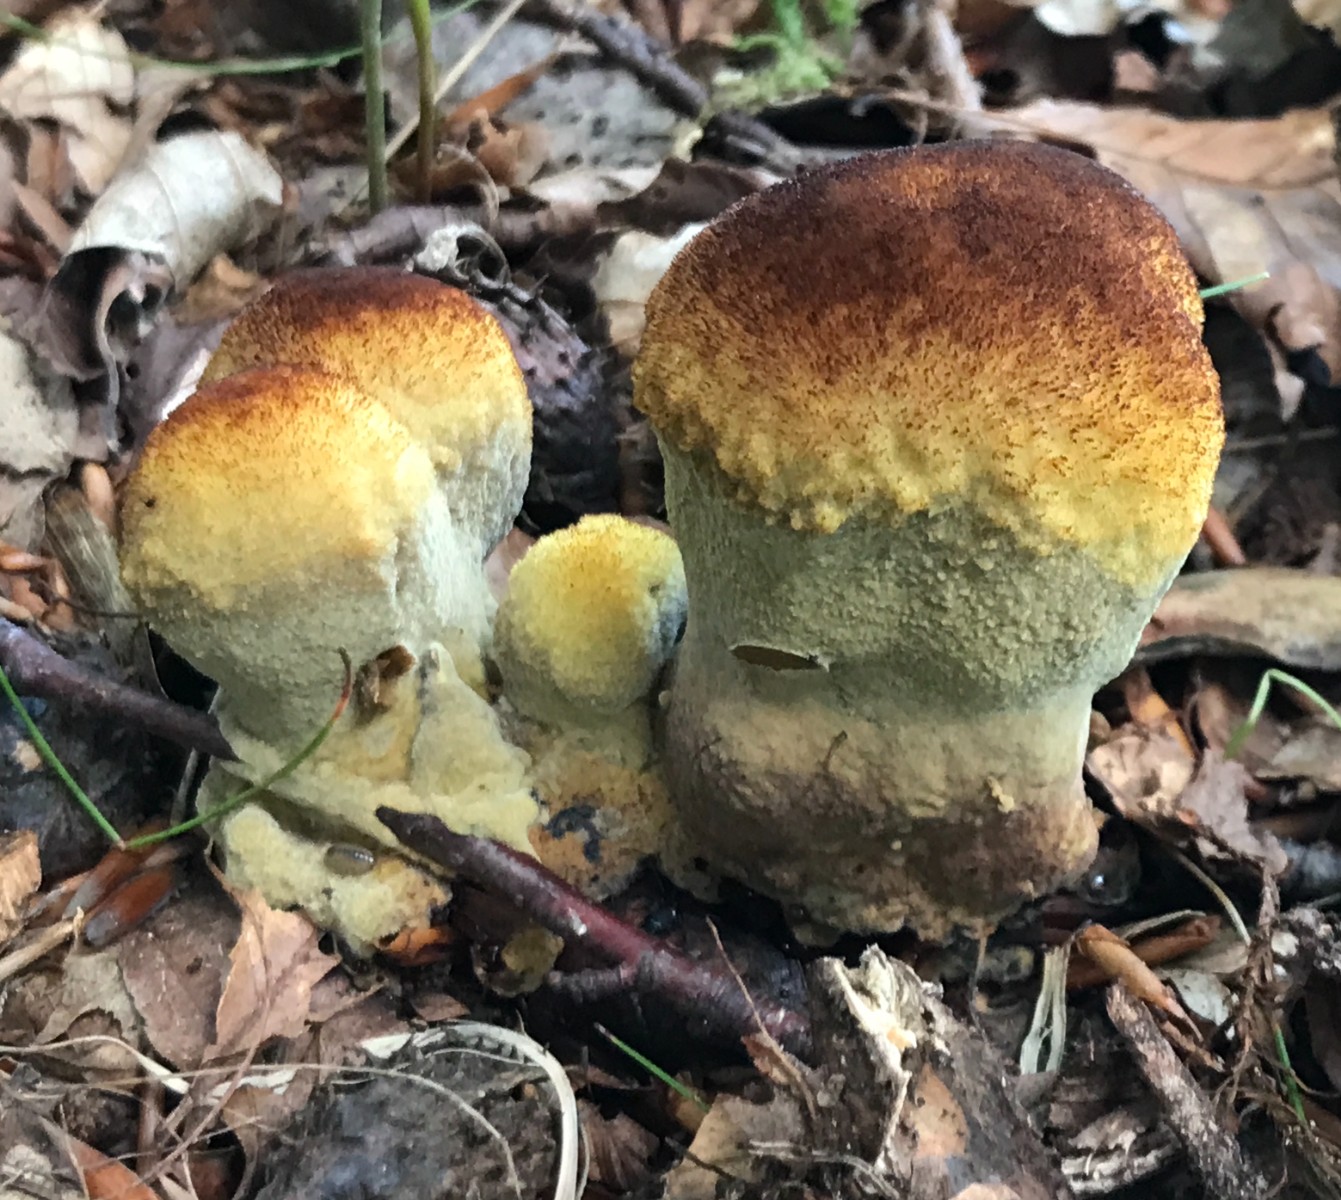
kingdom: Fungi
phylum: Basidiomycota
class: Agaricomycetes
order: Polyporales
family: Laetiporaceae
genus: Phaeolus
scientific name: Phaeolus schweinitzii
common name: brunporesvamp
